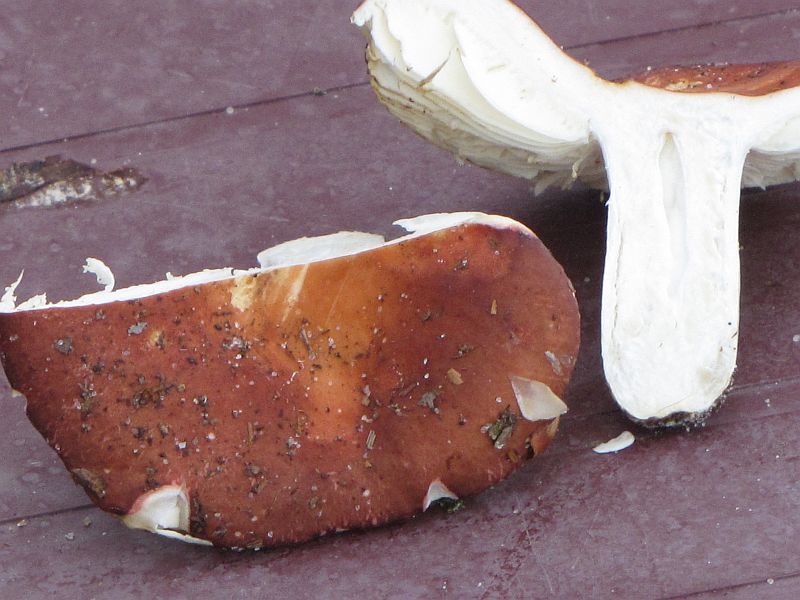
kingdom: Fungi
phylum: Basidiomycota
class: Agaricomycetes
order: Russulales
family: Russulaceae
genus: Russula
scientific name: Russula velenovskyi
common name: orangerød skørhat
